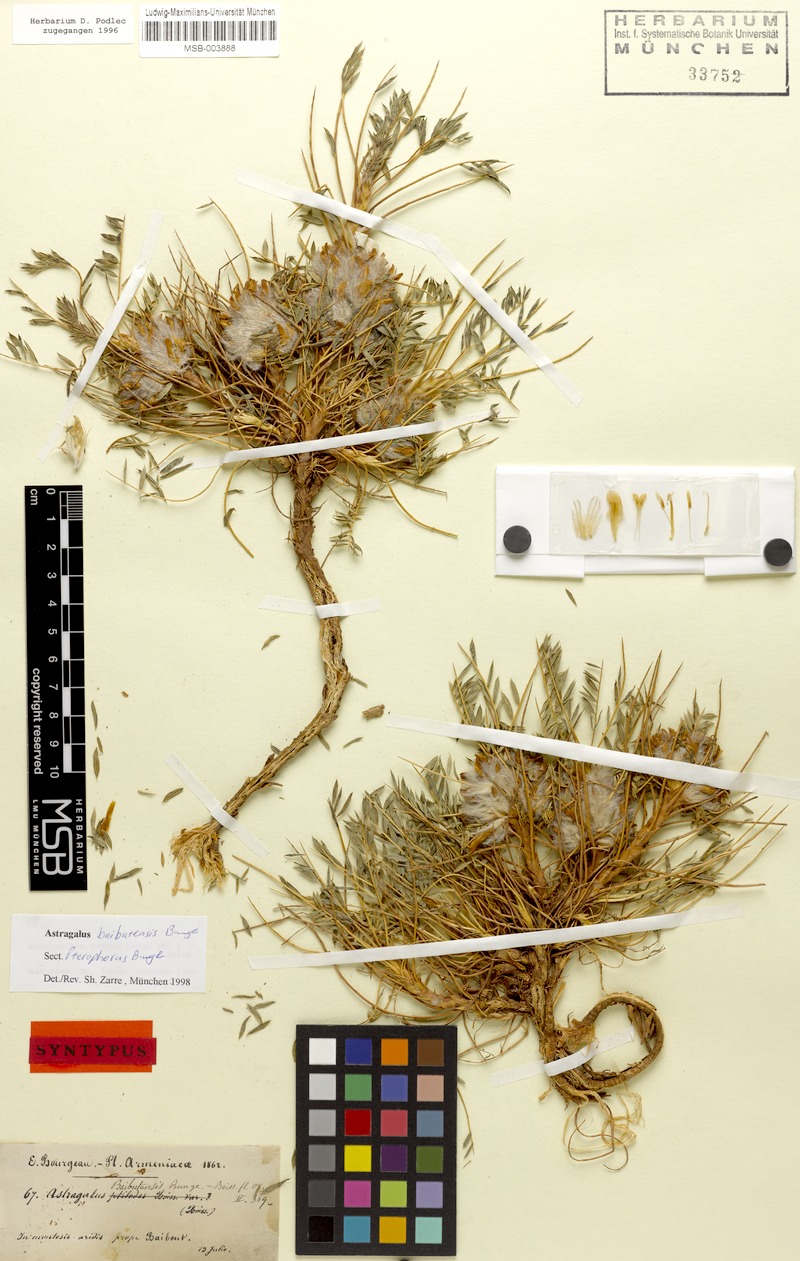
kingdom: Plantae
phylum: Tracheophyta
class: Magnoliopsida
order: Fabales
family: Fabaceae
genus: Astragalus
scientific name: Astragalus baibutensis
